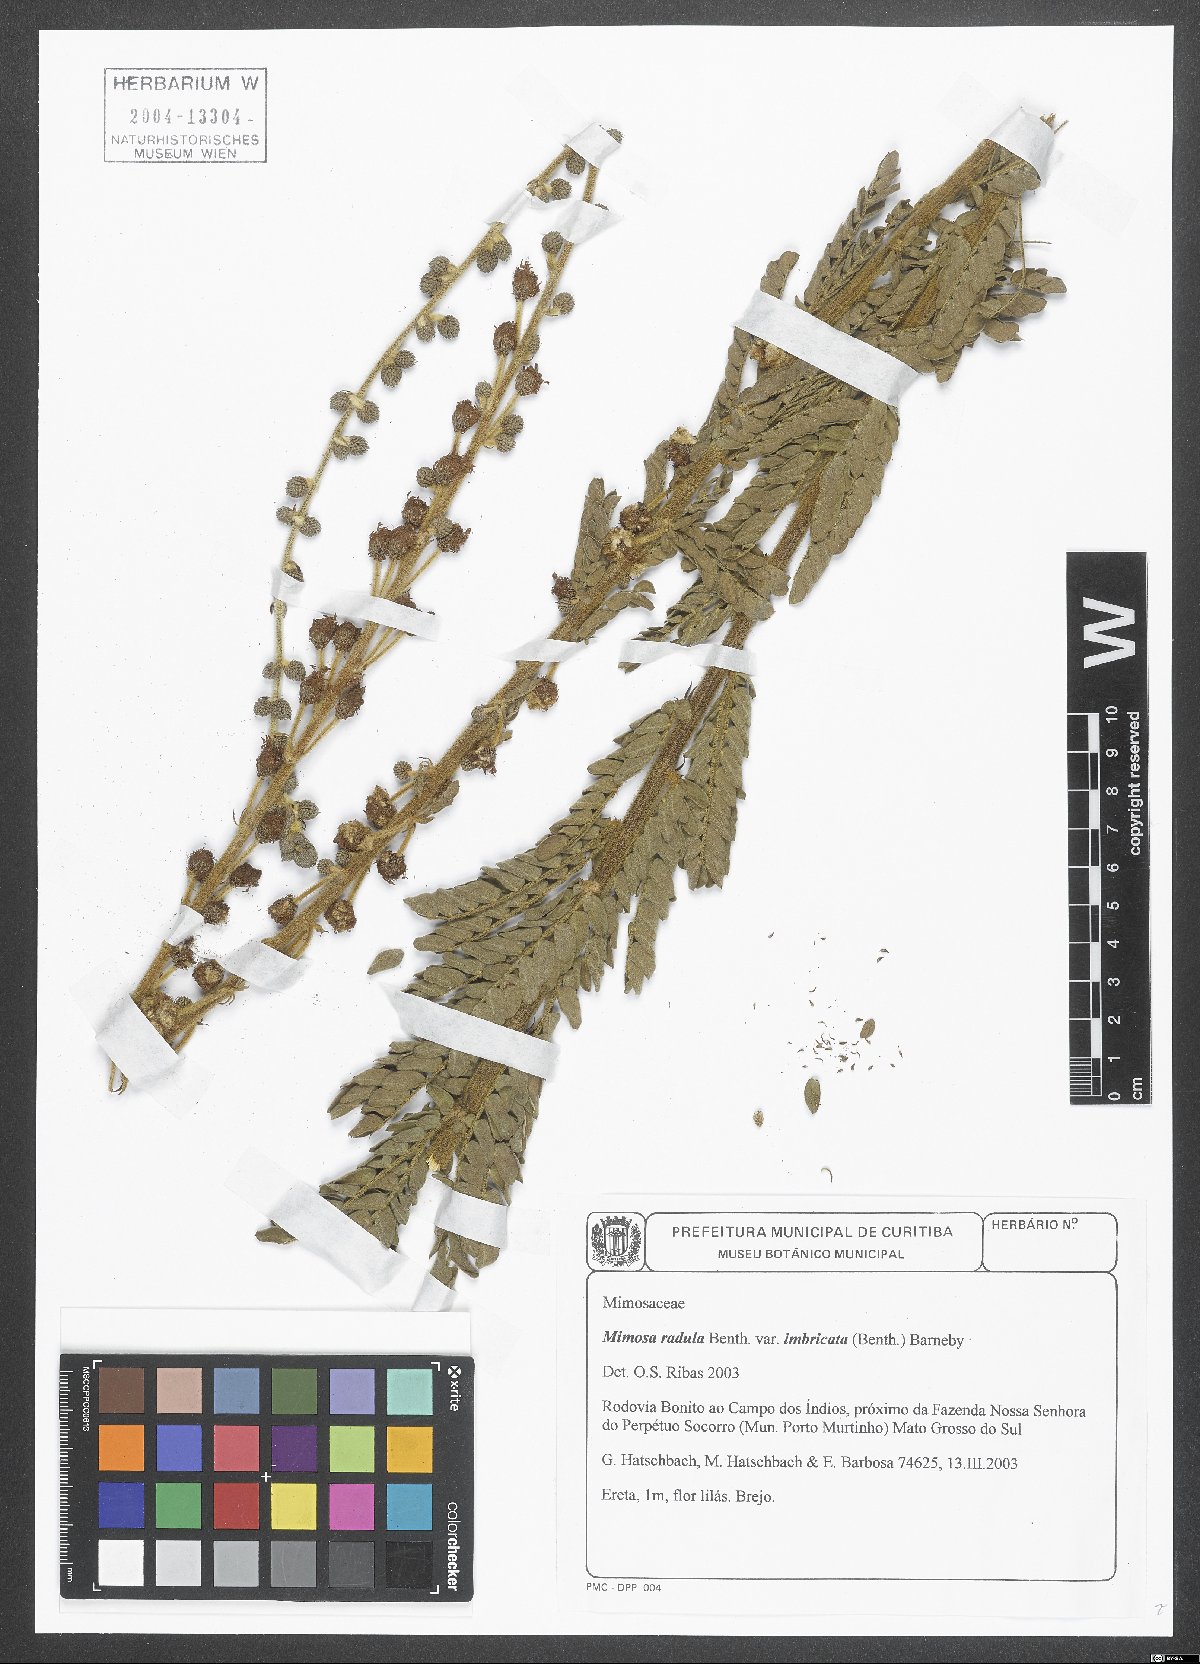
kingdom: Plantae
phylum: Tracheophyta
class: Magnoliopsida
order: Fabales
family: Fabaceae
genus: Mimosa
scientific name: Mimosa radula
